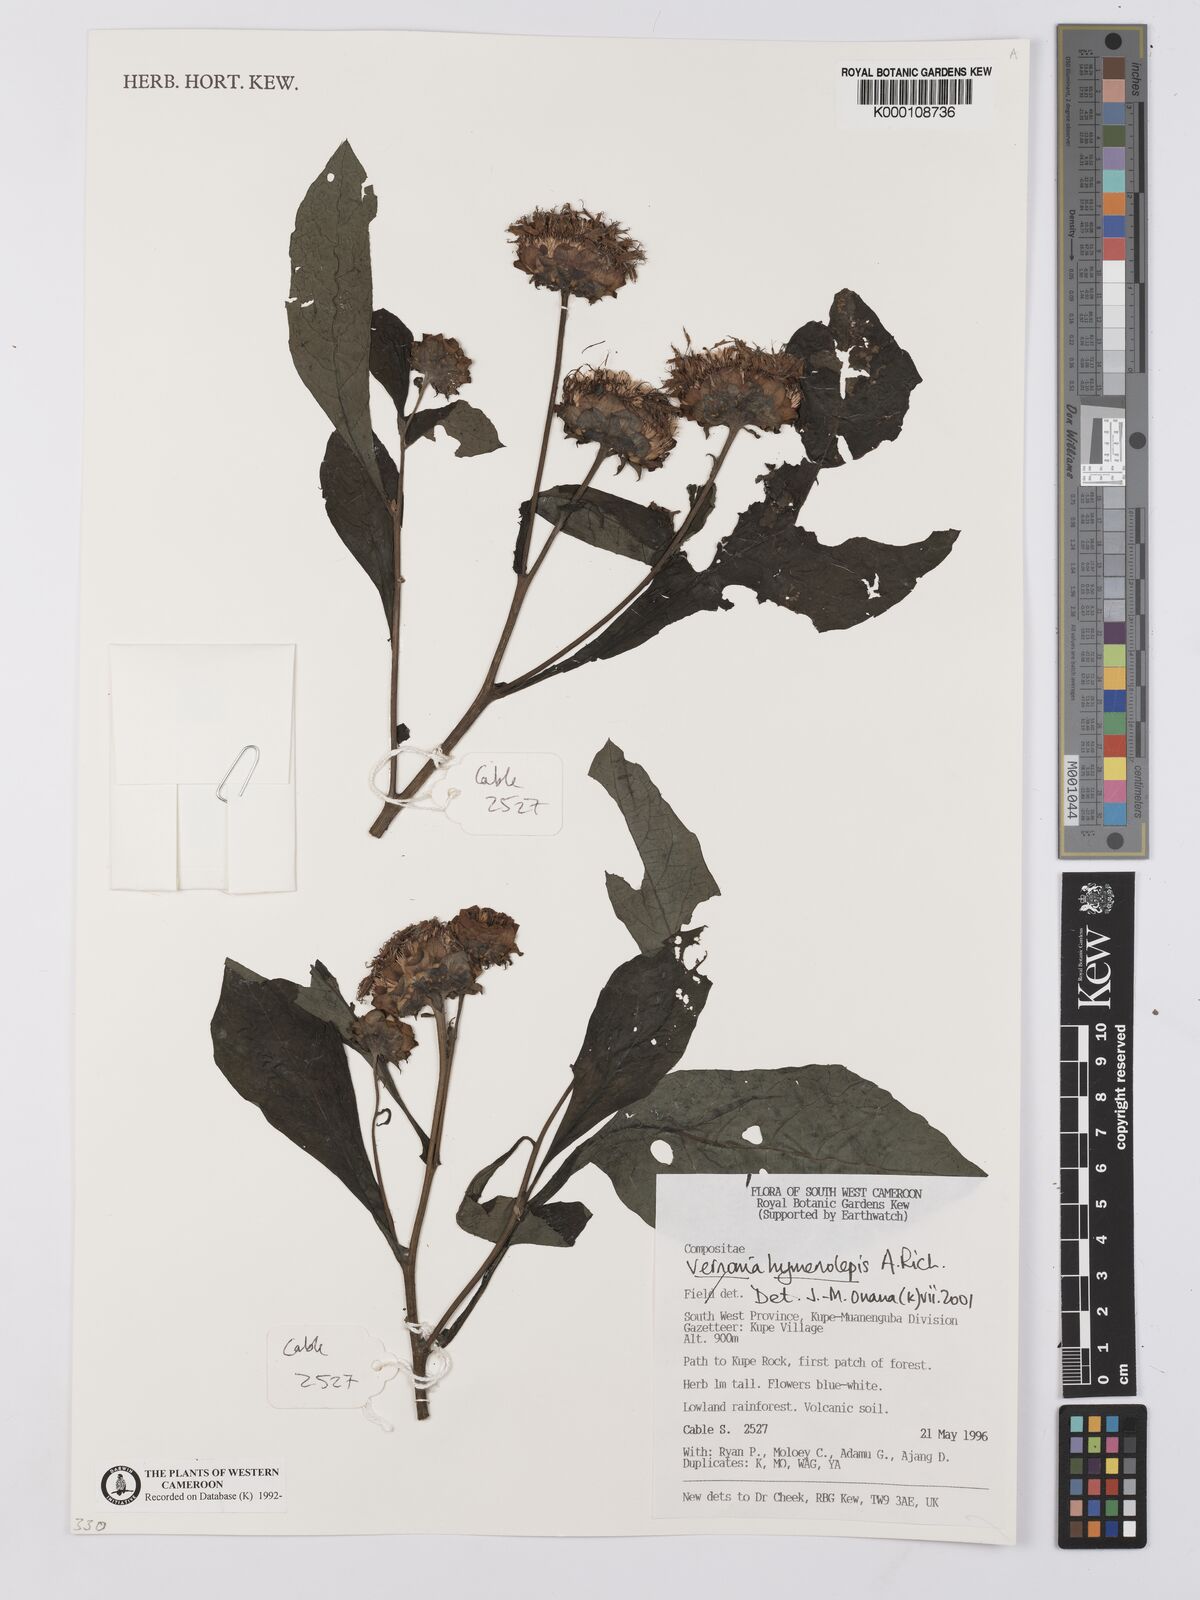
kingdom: Plantae
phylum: Tracheophyta
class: Magnoliopsida
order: Asterales
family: Asteraceae
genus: Baccharoides
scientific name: Baccharoides hymenolepis
